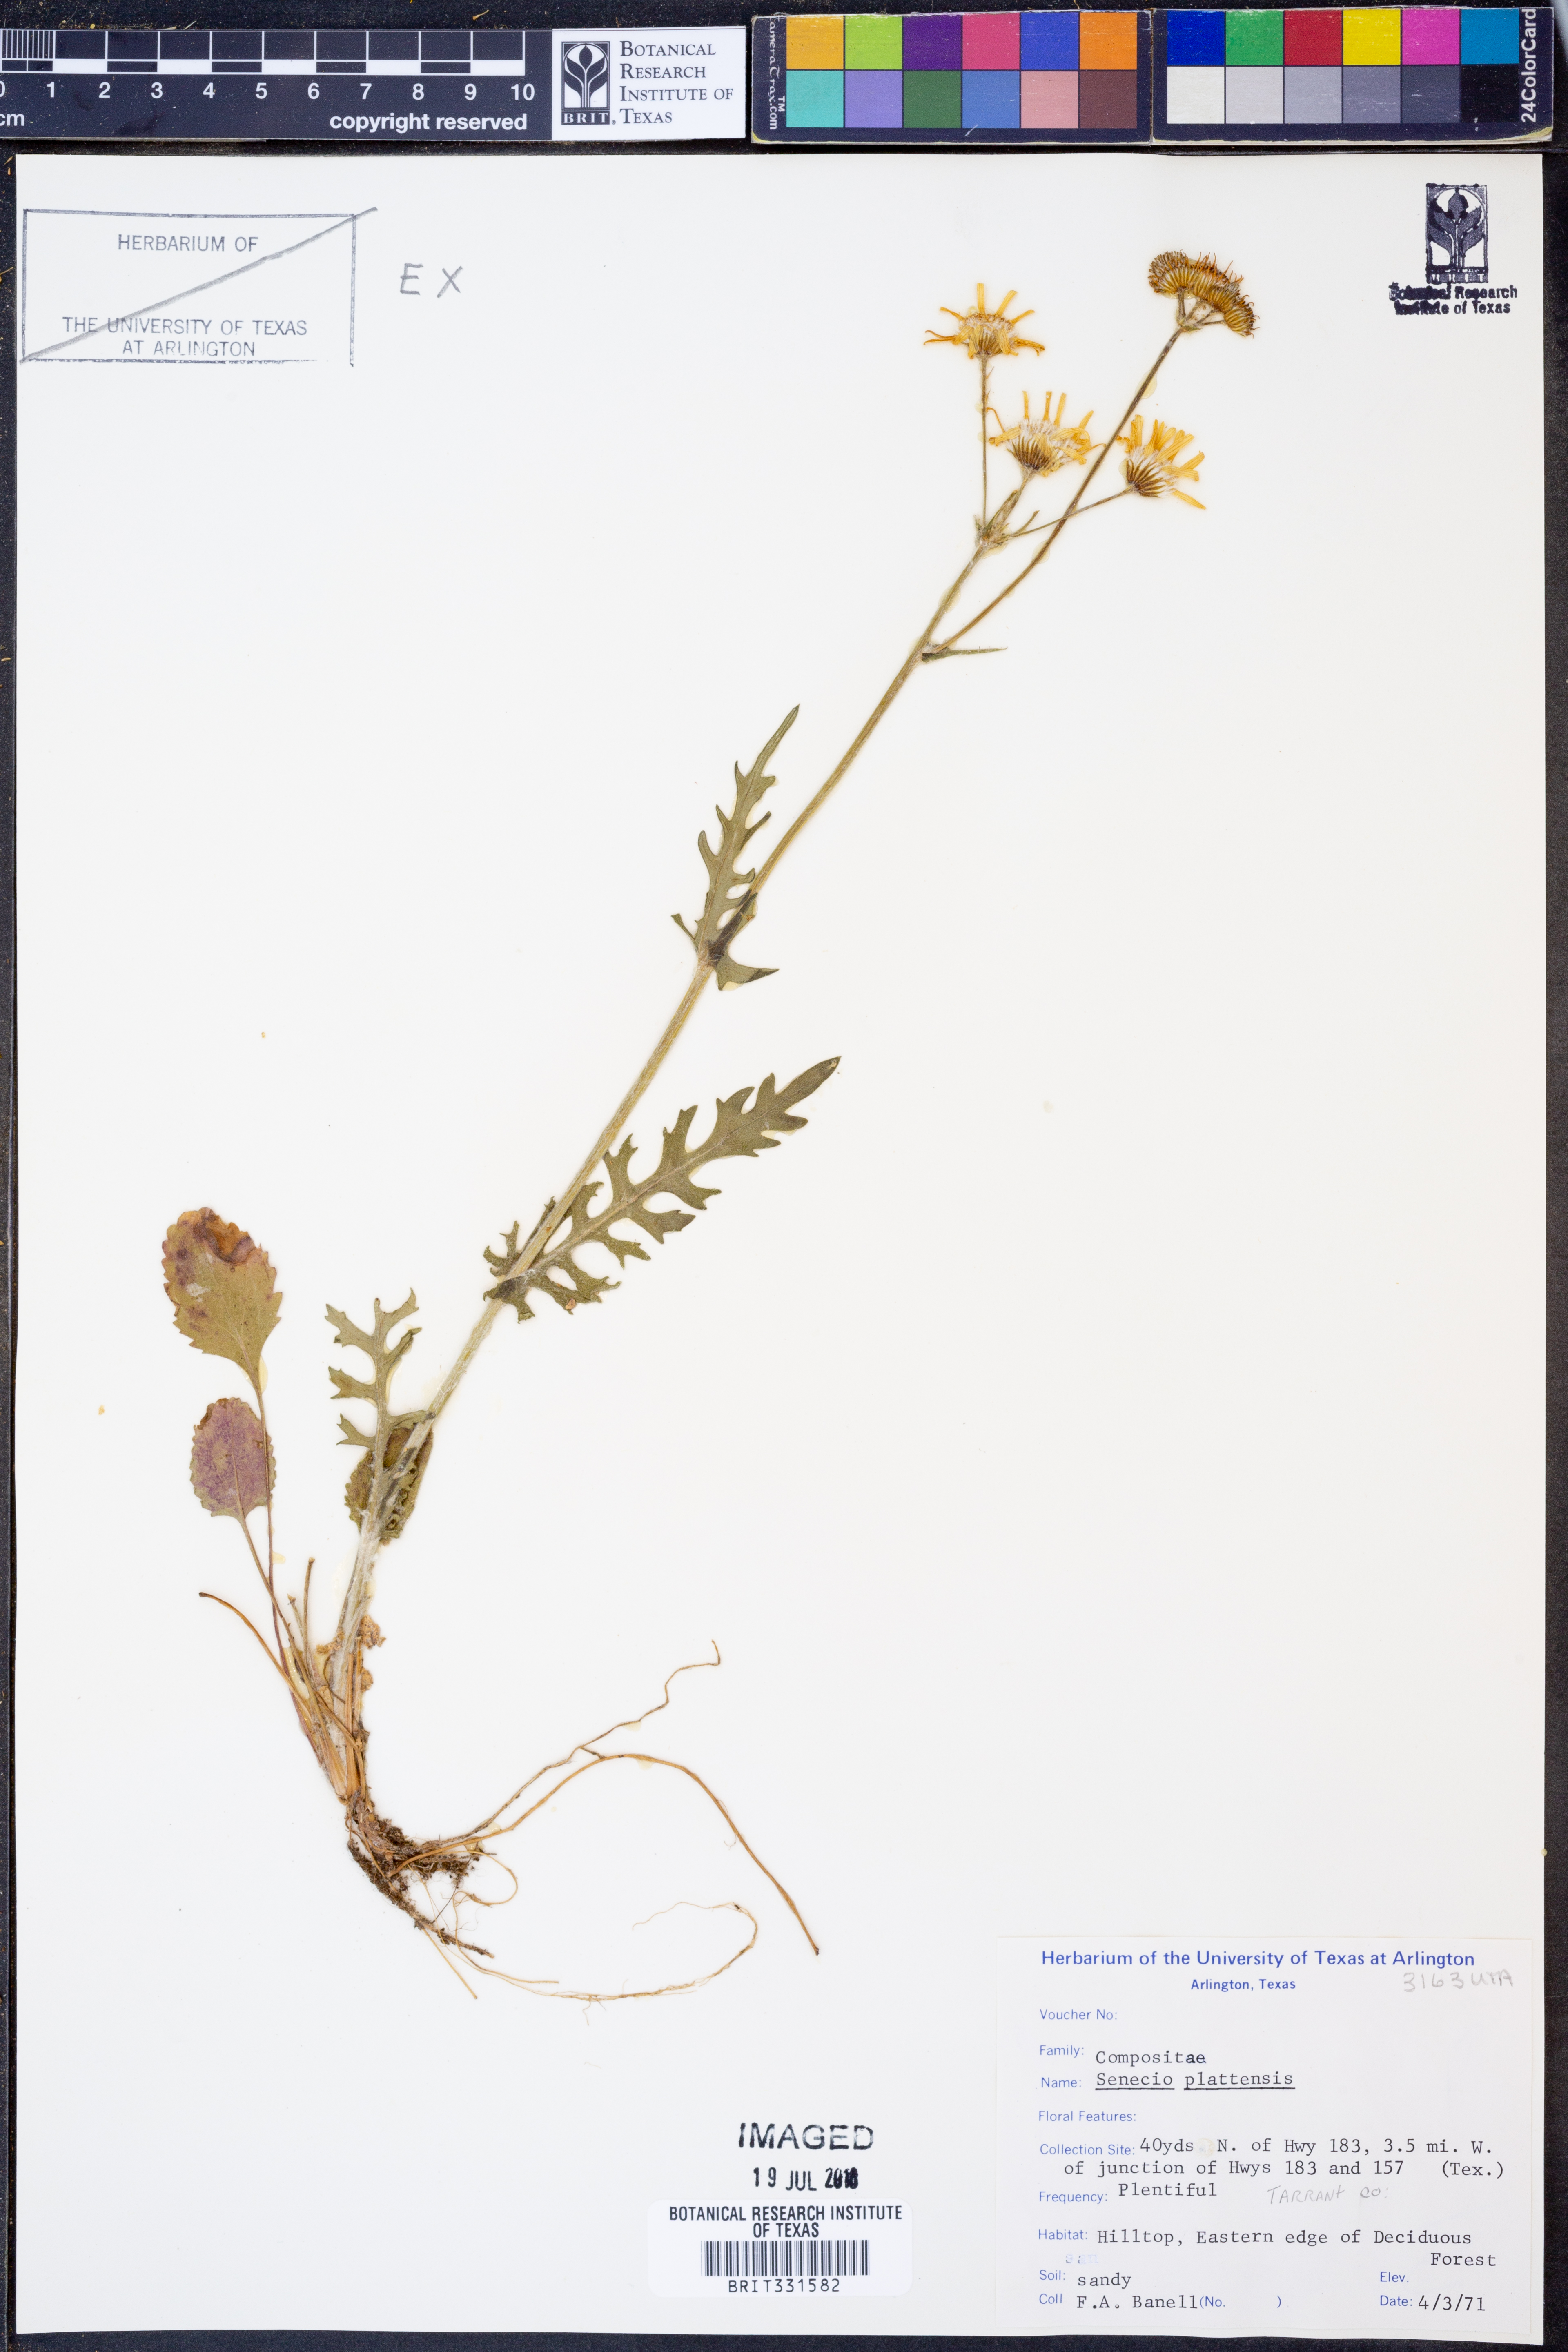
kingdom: Plantae
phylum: Tracheophyta
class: Magnoliopsida
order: Asterales
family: Asteraceae
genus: Packera
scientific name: Packera plattensis
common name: Prairie groundsel
